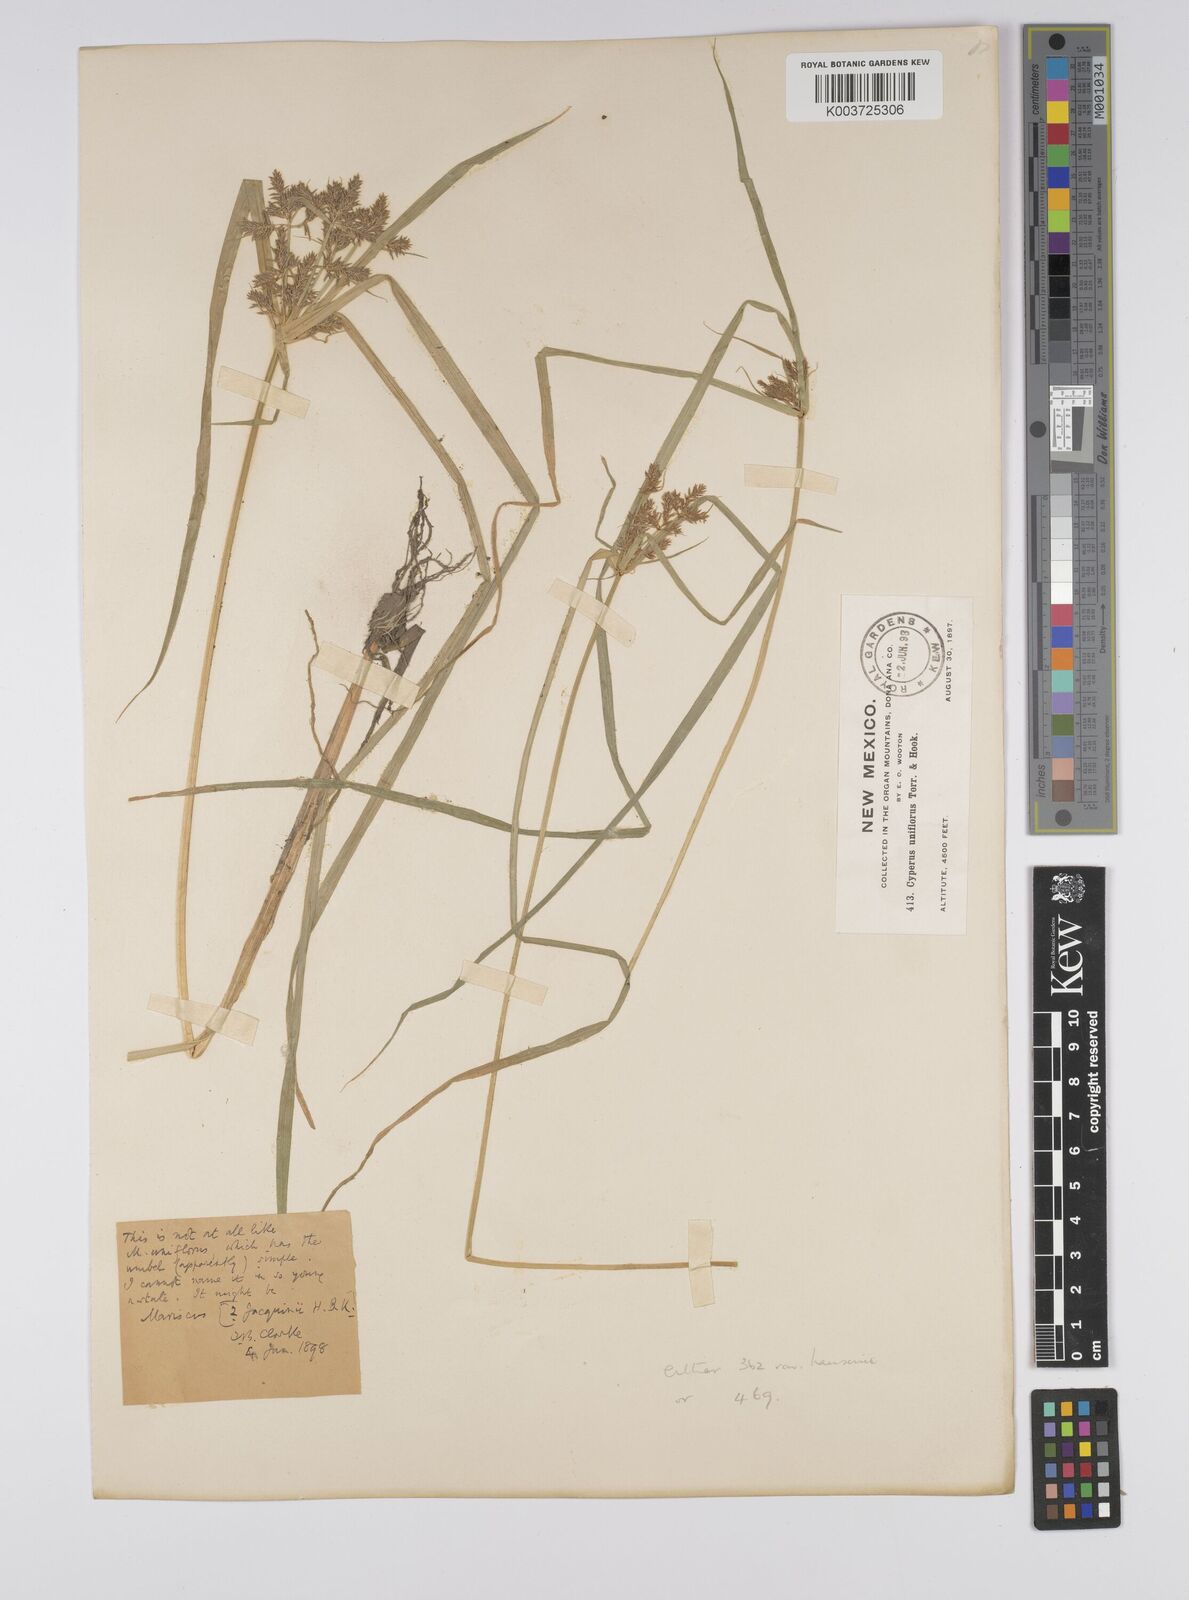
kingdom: Plantae
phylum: Tracheophyta
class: Liliopsida
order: Poales
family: Cyperaceae
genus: Cyperus
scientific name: Cyperus hermaphroditus
